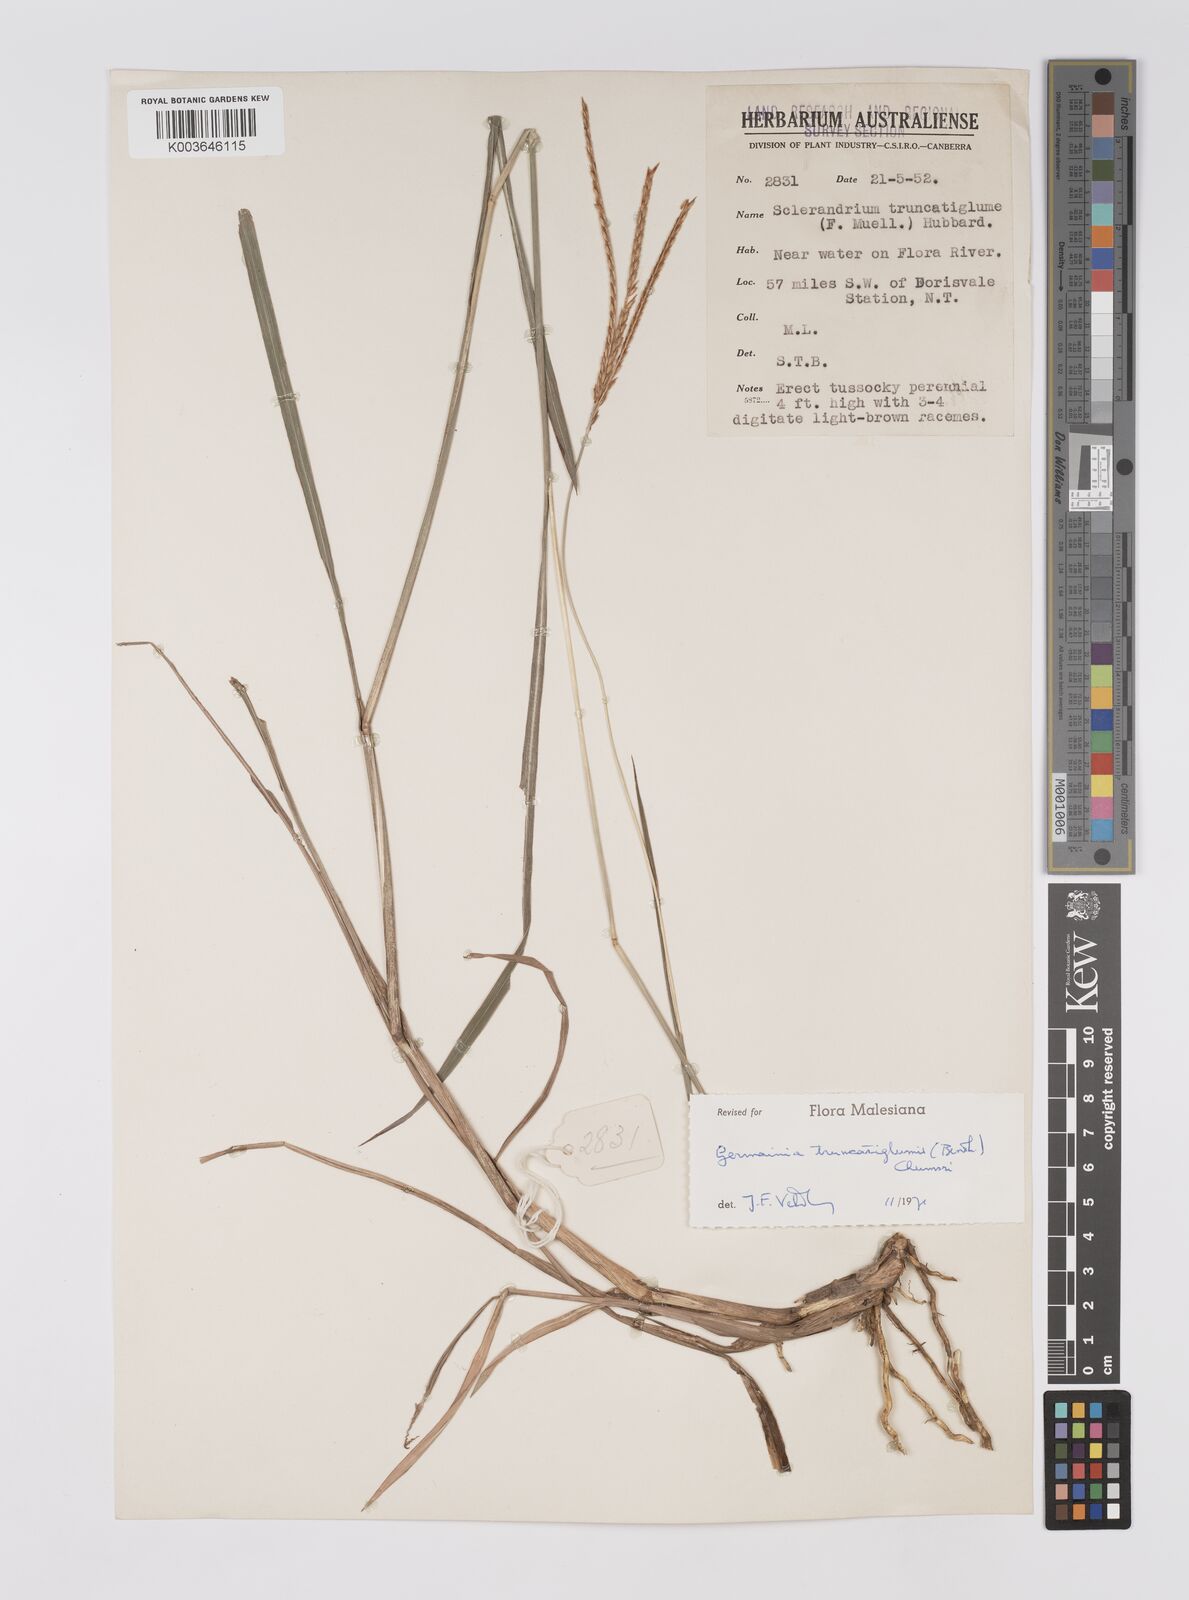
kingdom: Plantae
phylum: Tracheophyta
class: Liliopsida
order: Poales
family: Poaceae
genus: Germainia
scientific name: Germainia truncatiglumis
